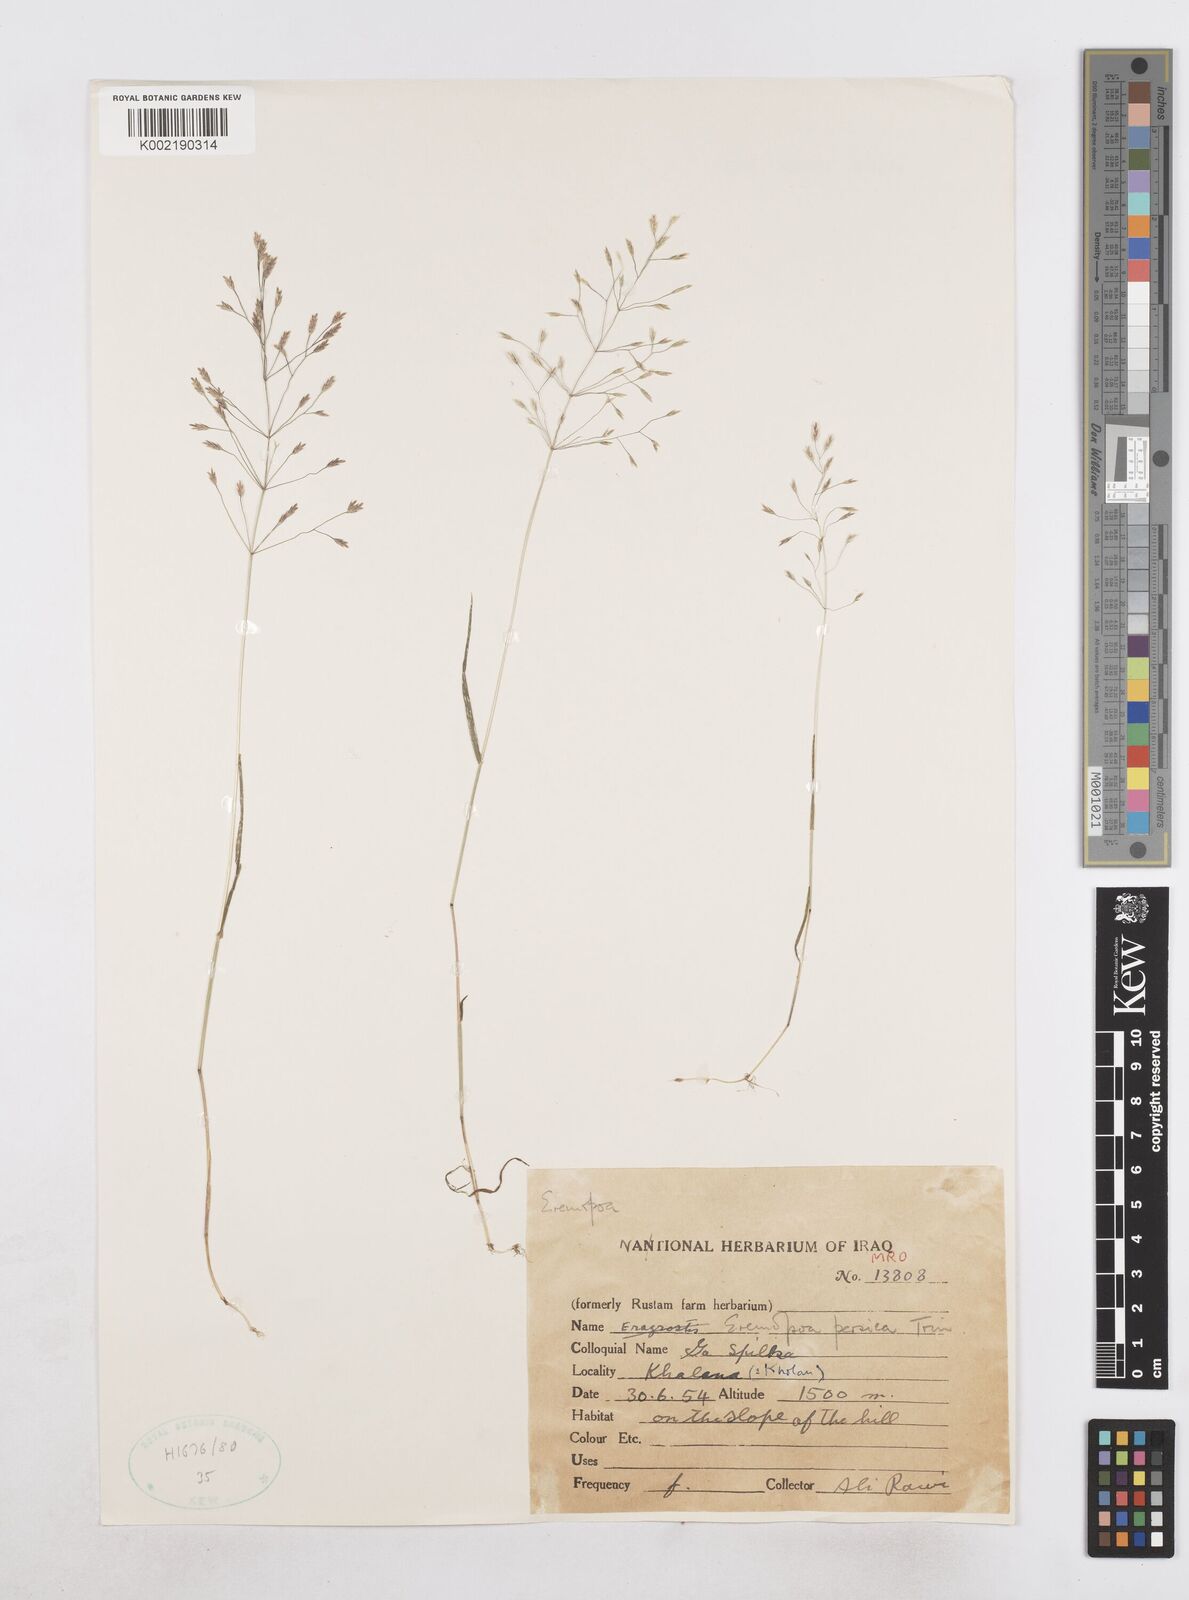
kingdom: Plantae
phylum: Tracheophyta
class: Liliopsida
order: Poales
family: Poaceae
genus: Poa
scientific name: Poa persica
